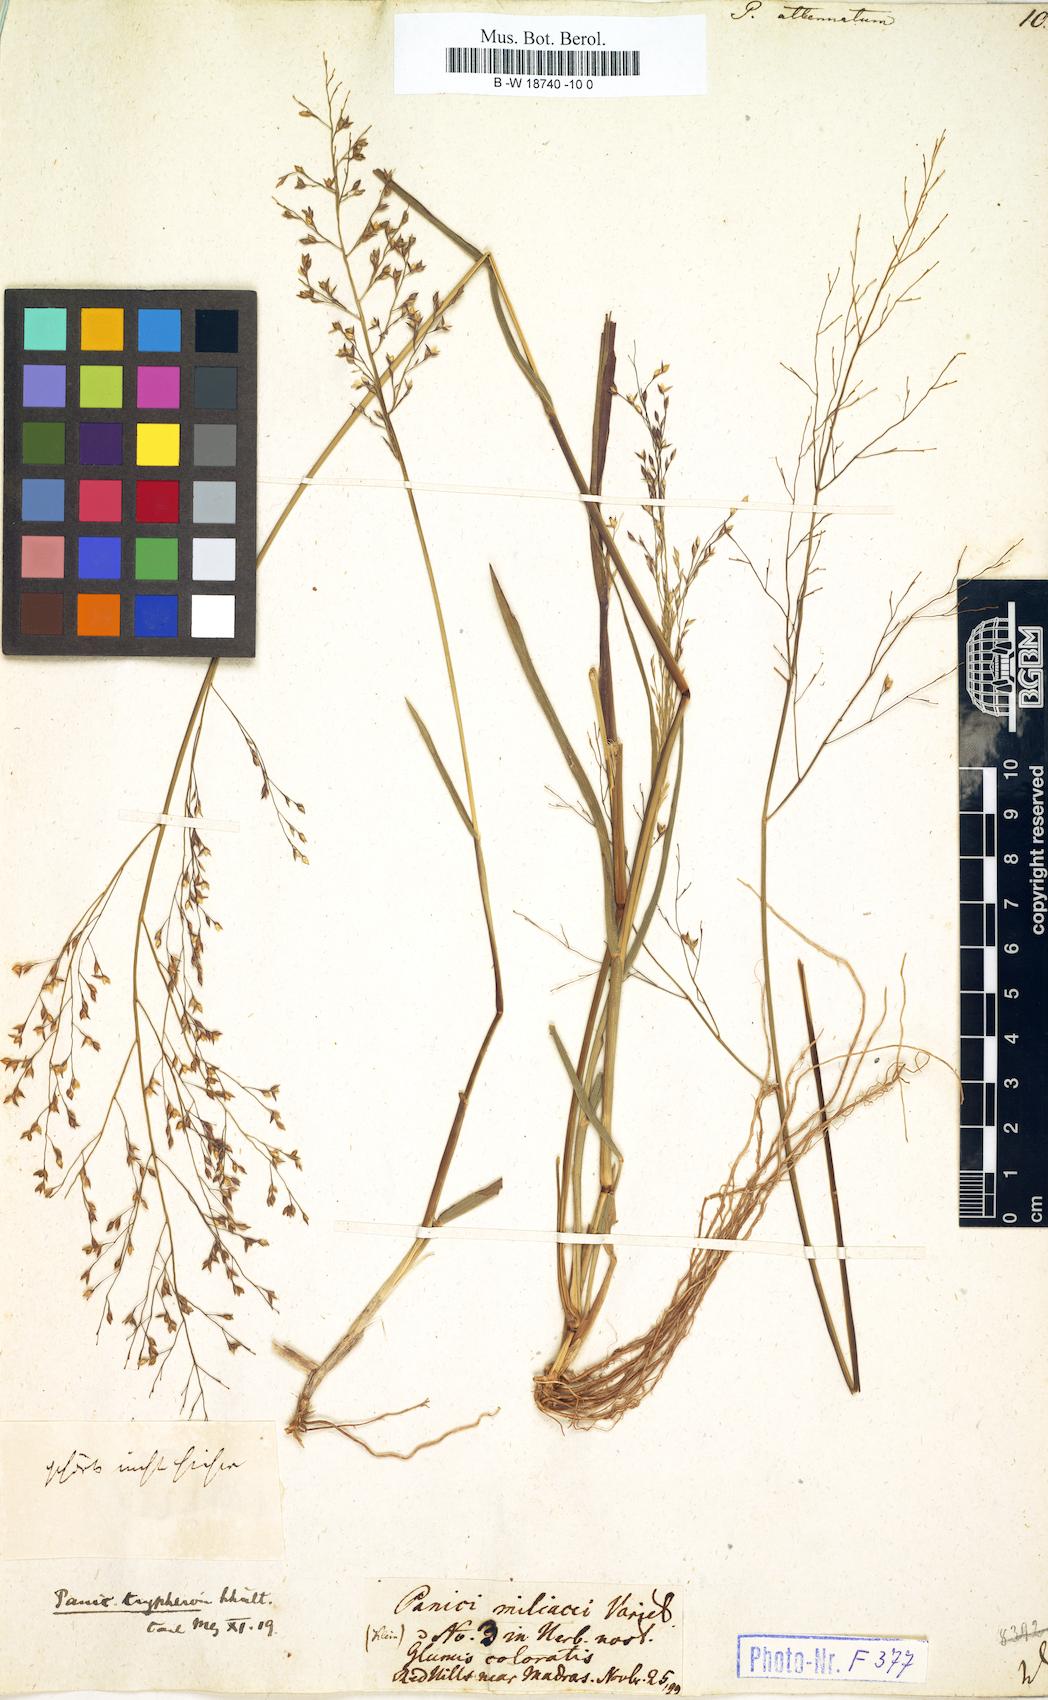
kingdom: Plantae
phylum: Tracheophyta
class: Liliopsida
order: Poales
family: Poaceae
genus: Panicum
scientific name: Panicum sumatrense
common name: Little millet
